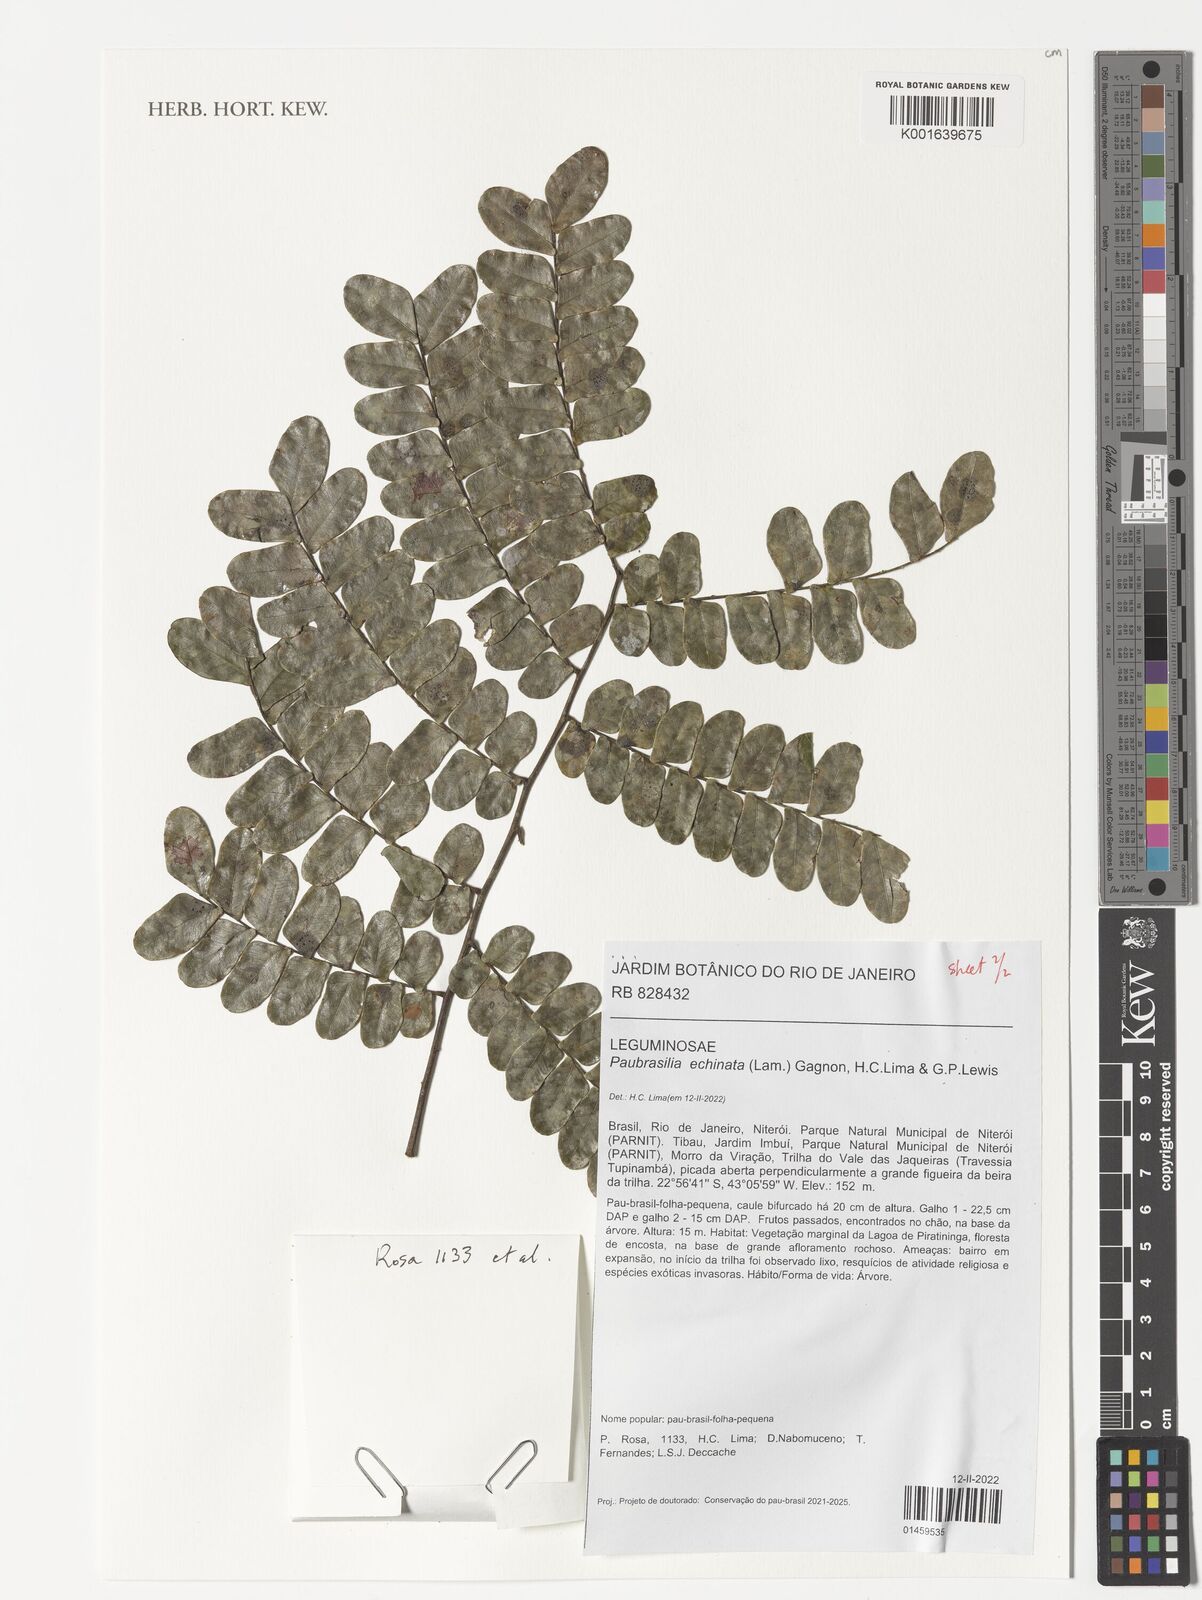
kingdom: Plantae
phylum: Tracheophyta
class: Magnoliopsida
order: Fabales
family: Fabaceae
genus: Paubrasilia
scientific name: Paubrasilia echinata
